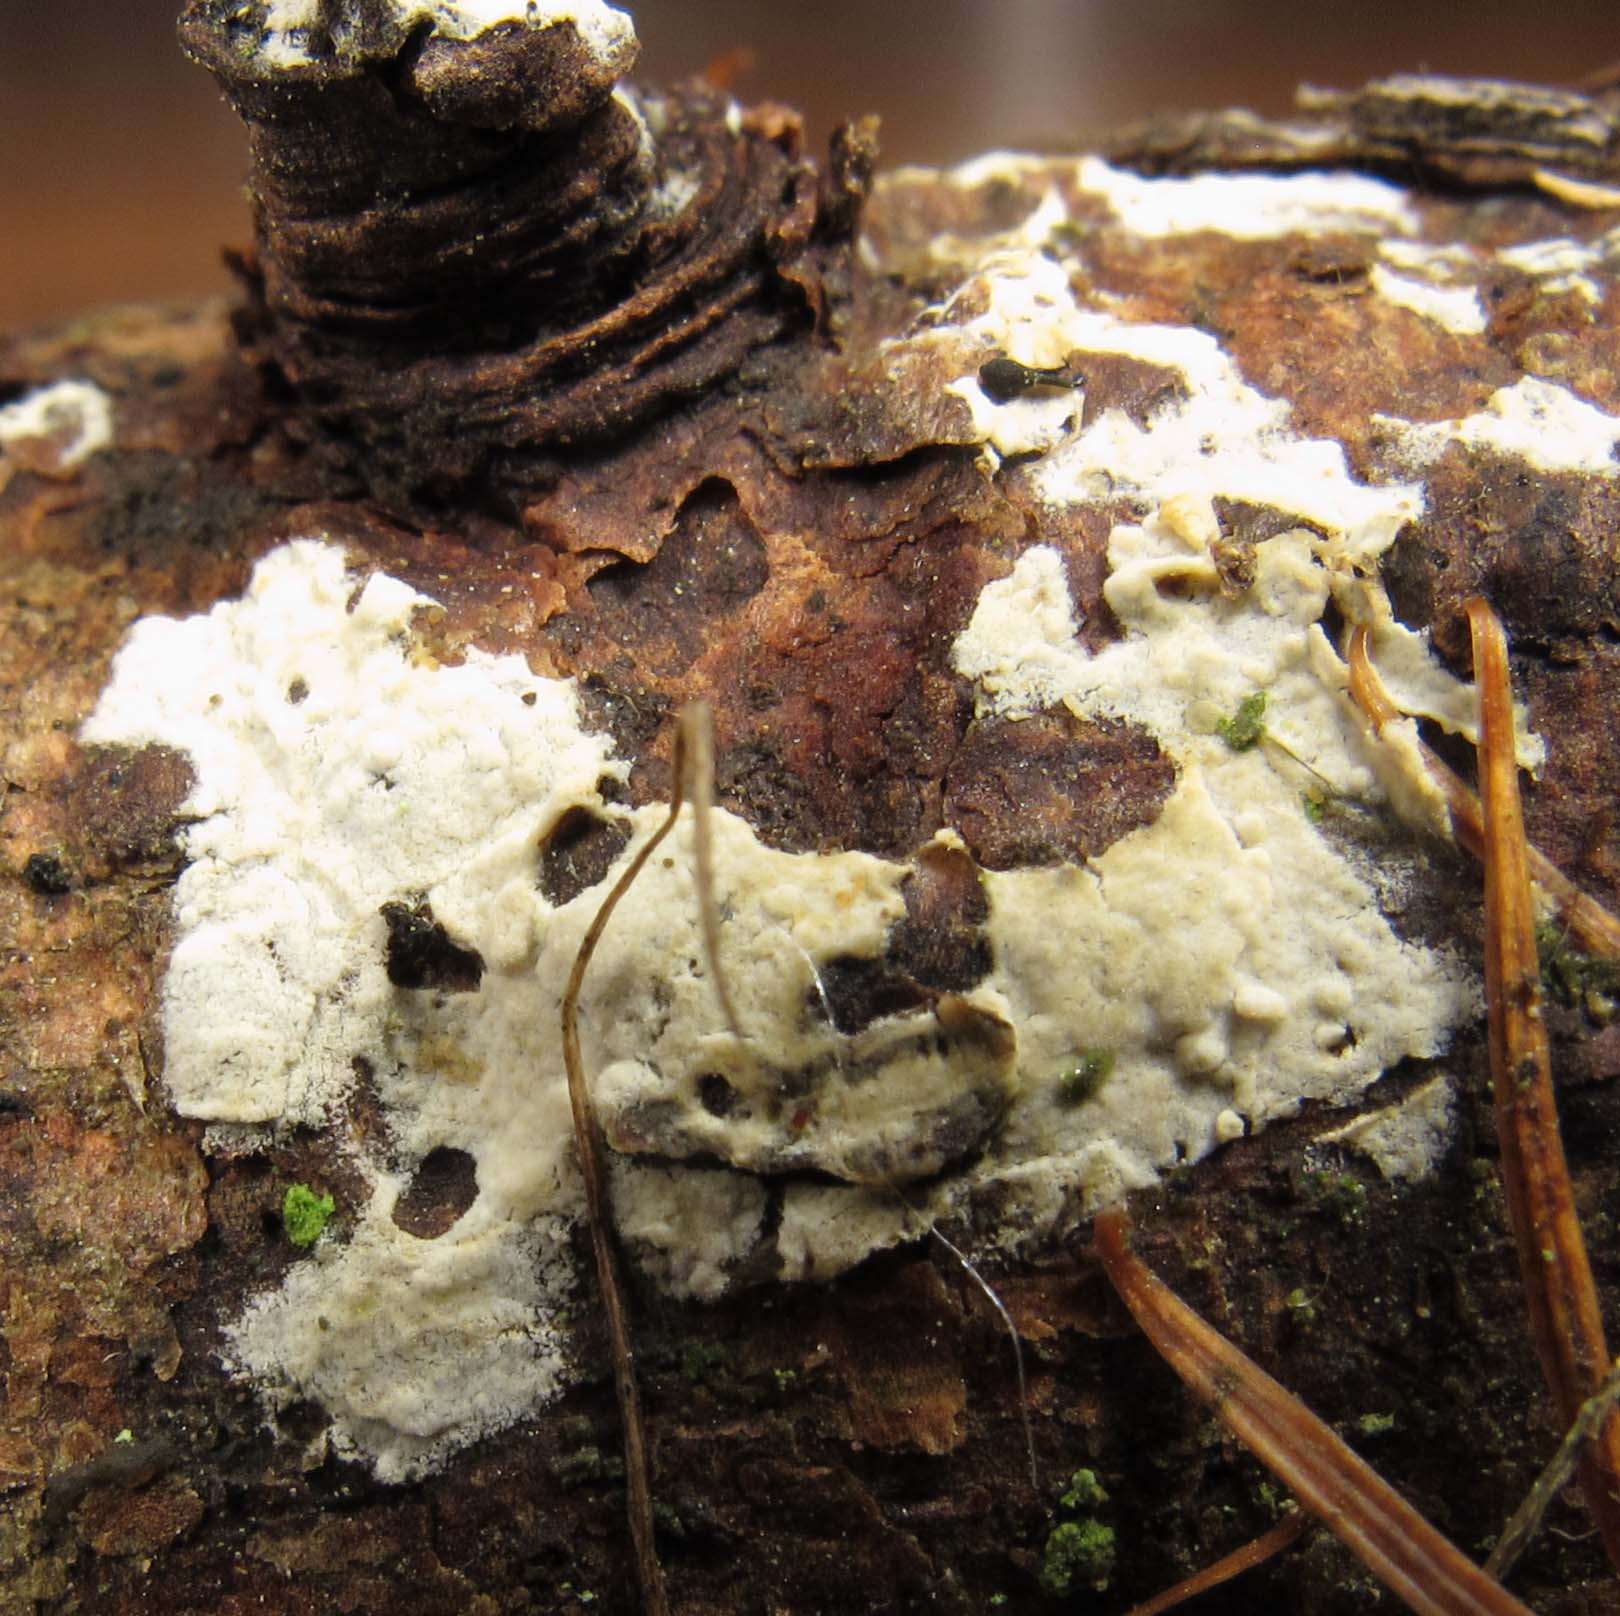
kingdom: Fungi
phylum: Basidiomycota
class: Agaricomycetes
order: Russulales
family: Stereaceae
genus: Gloeocystidiellum
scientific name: Gloeocystidiellum luridum
